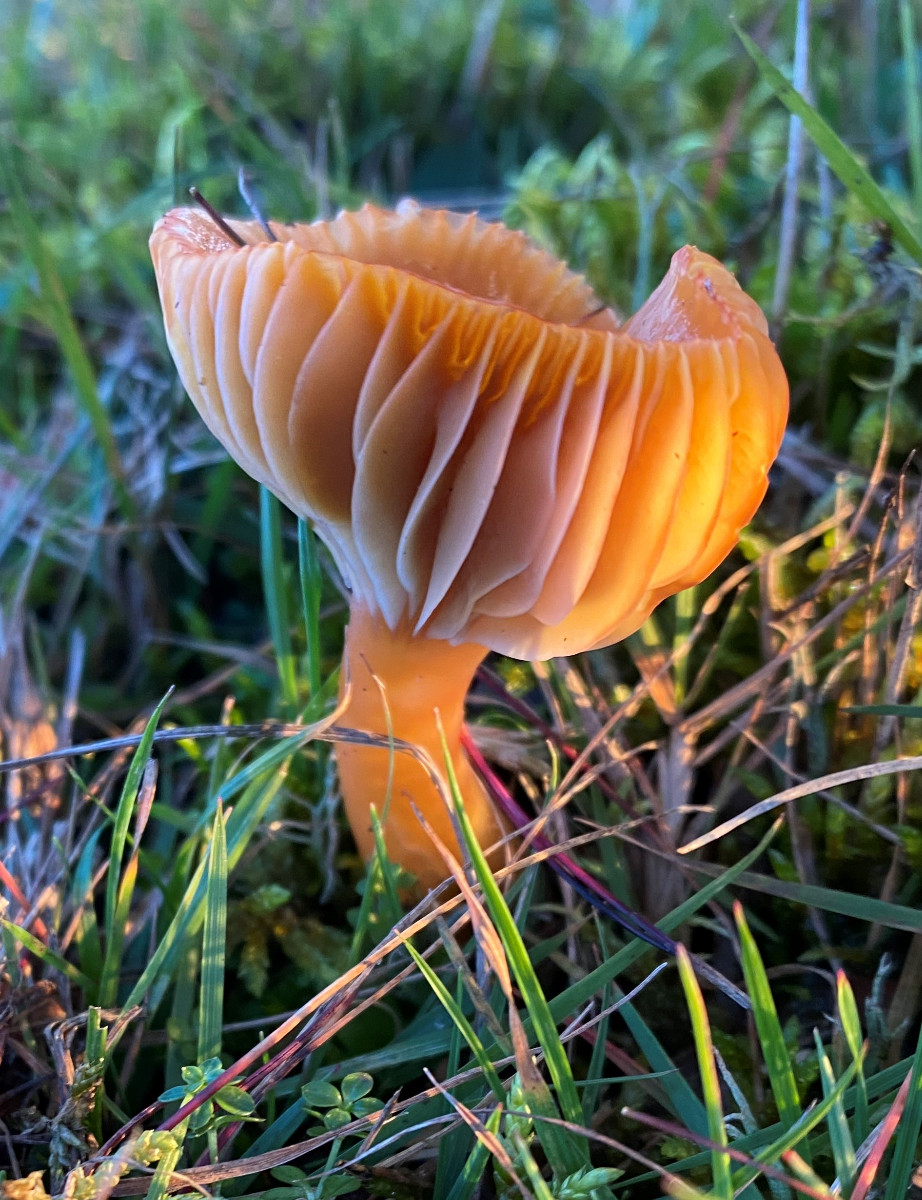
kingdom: Fungi
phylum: Basidiomycota
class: Agaricomycetes
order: Agaricales
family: Hygrophoraceae
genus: Gliophorus
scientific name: Gliophorus laetus
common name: brusk-vokshat
